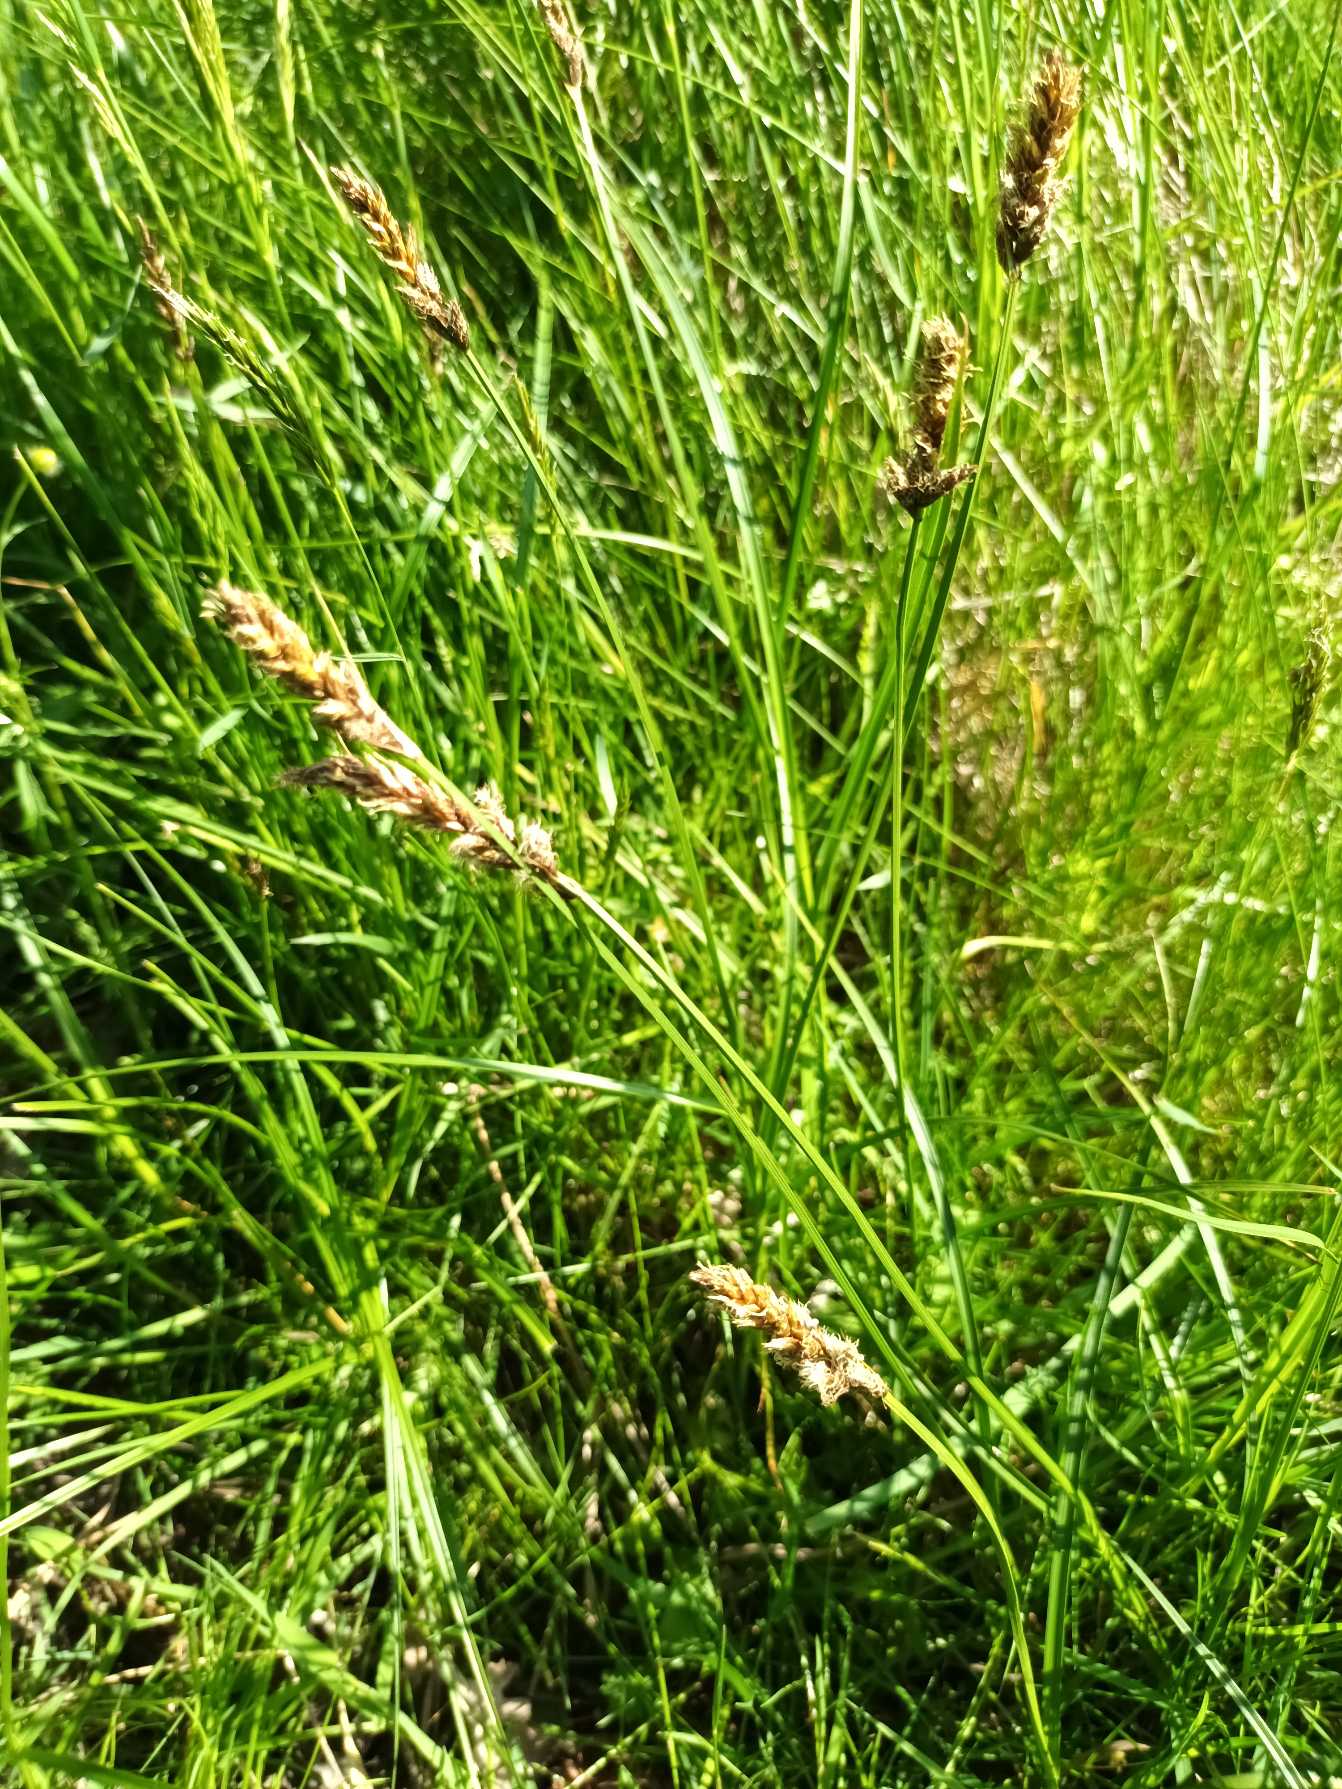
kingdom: Plantae
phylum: Tracheophyta
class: Liliopsida
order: Poales
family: Cyperaceae
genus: Carex
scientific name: Carex disticha
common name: Toradet star
